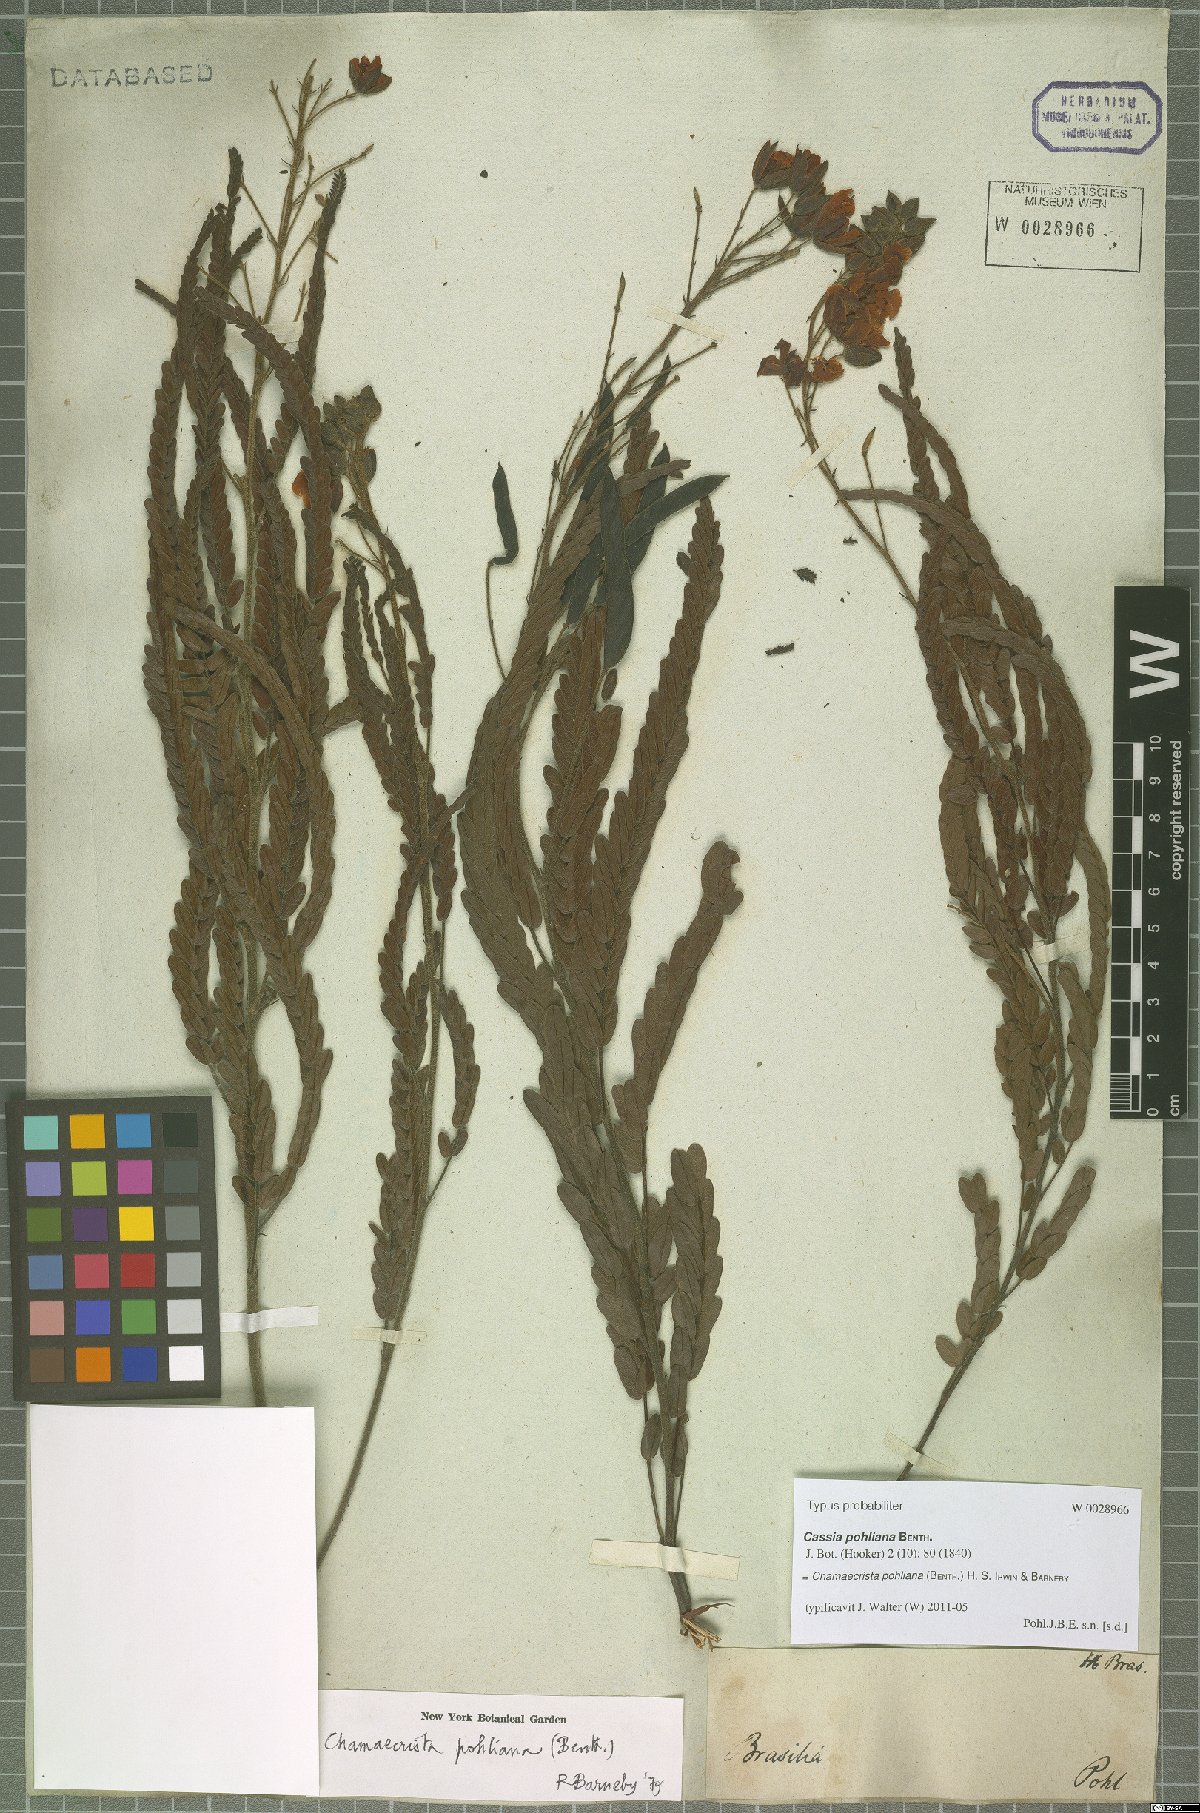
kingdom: Plantae
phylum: Tracheophyta
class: Magnoliopsida
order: Fabales
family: Fabaceae
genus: Chamaecrista
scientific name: Chamaecrista pohliana
